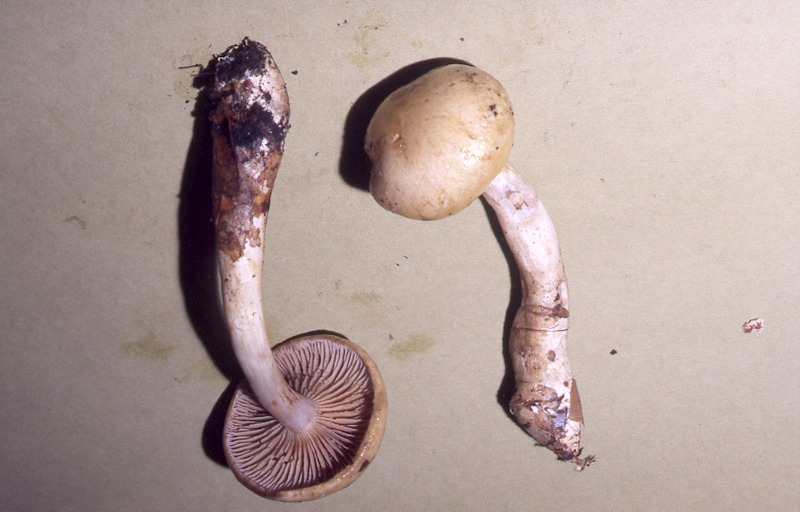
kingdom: Fungi
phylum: Basidiomycota
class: Agaricomycetes
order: Agaricales
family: Cortinariaceae
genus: Cortinarius
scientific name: Cortinarius delibutus
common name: Yellow webcap
